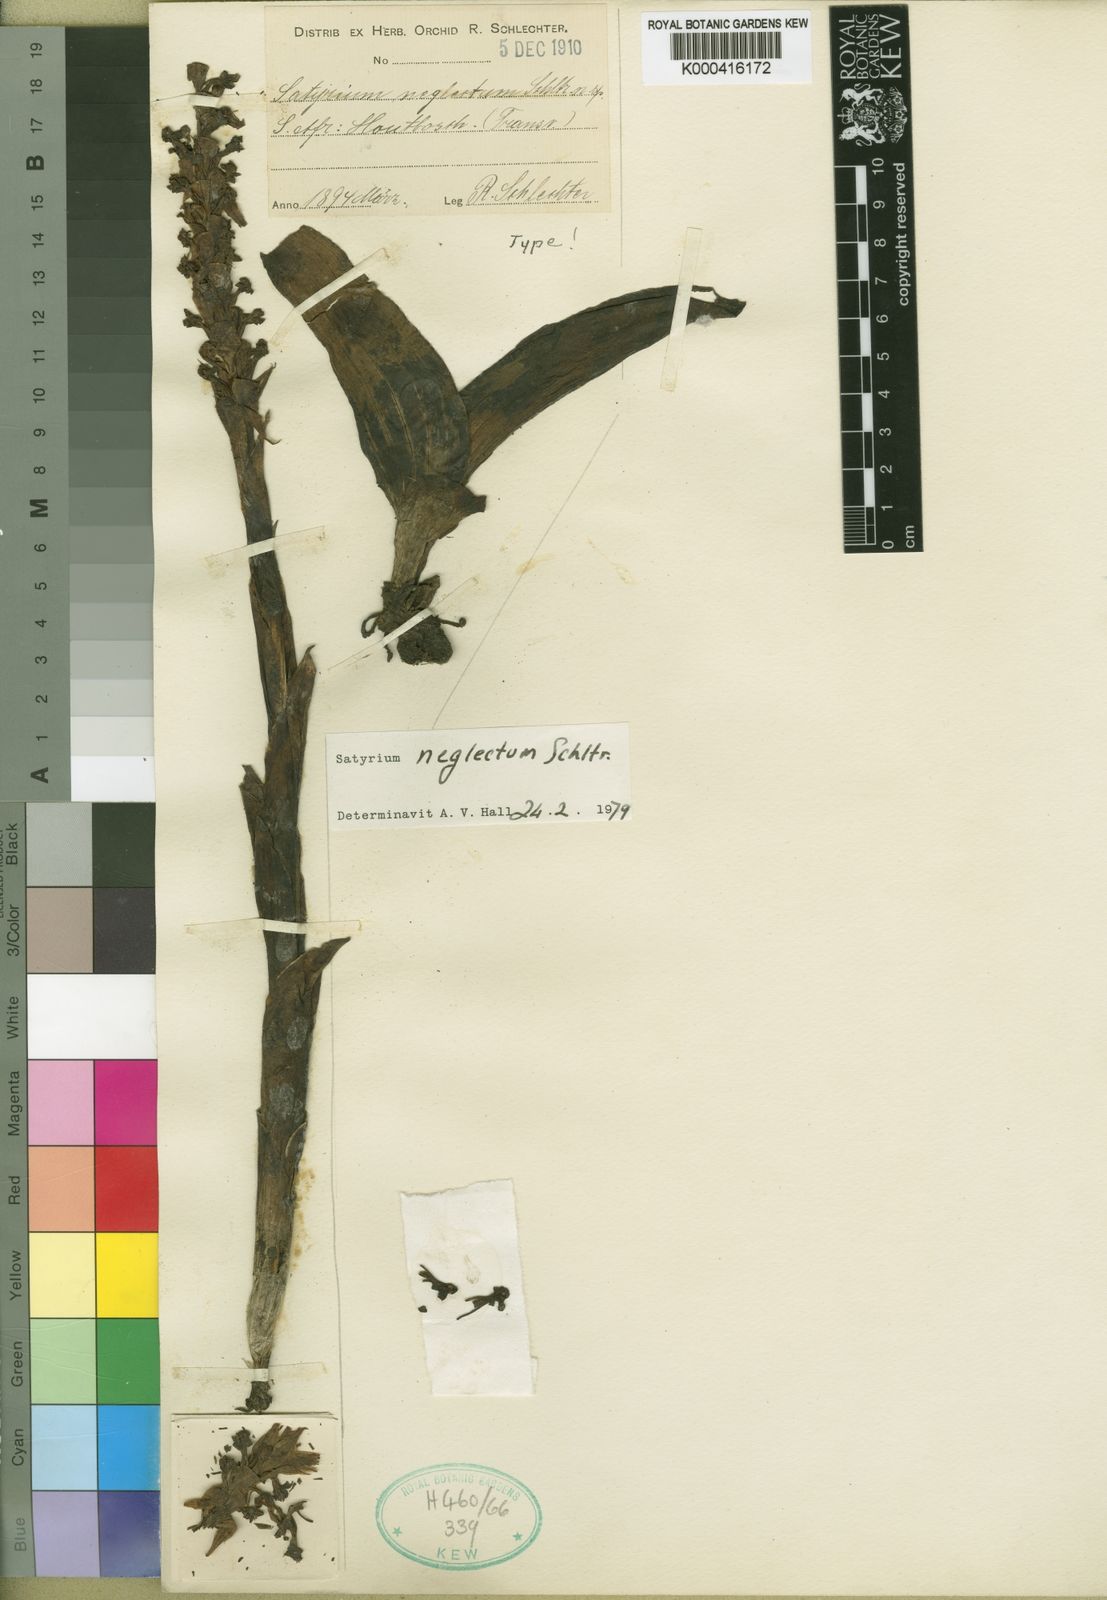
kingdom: Plantae
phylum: Tracheophyta
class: Liliopsida
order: Asparagales
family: Orchidaceae
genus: Satyrium
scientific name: Satyrium neglectum
